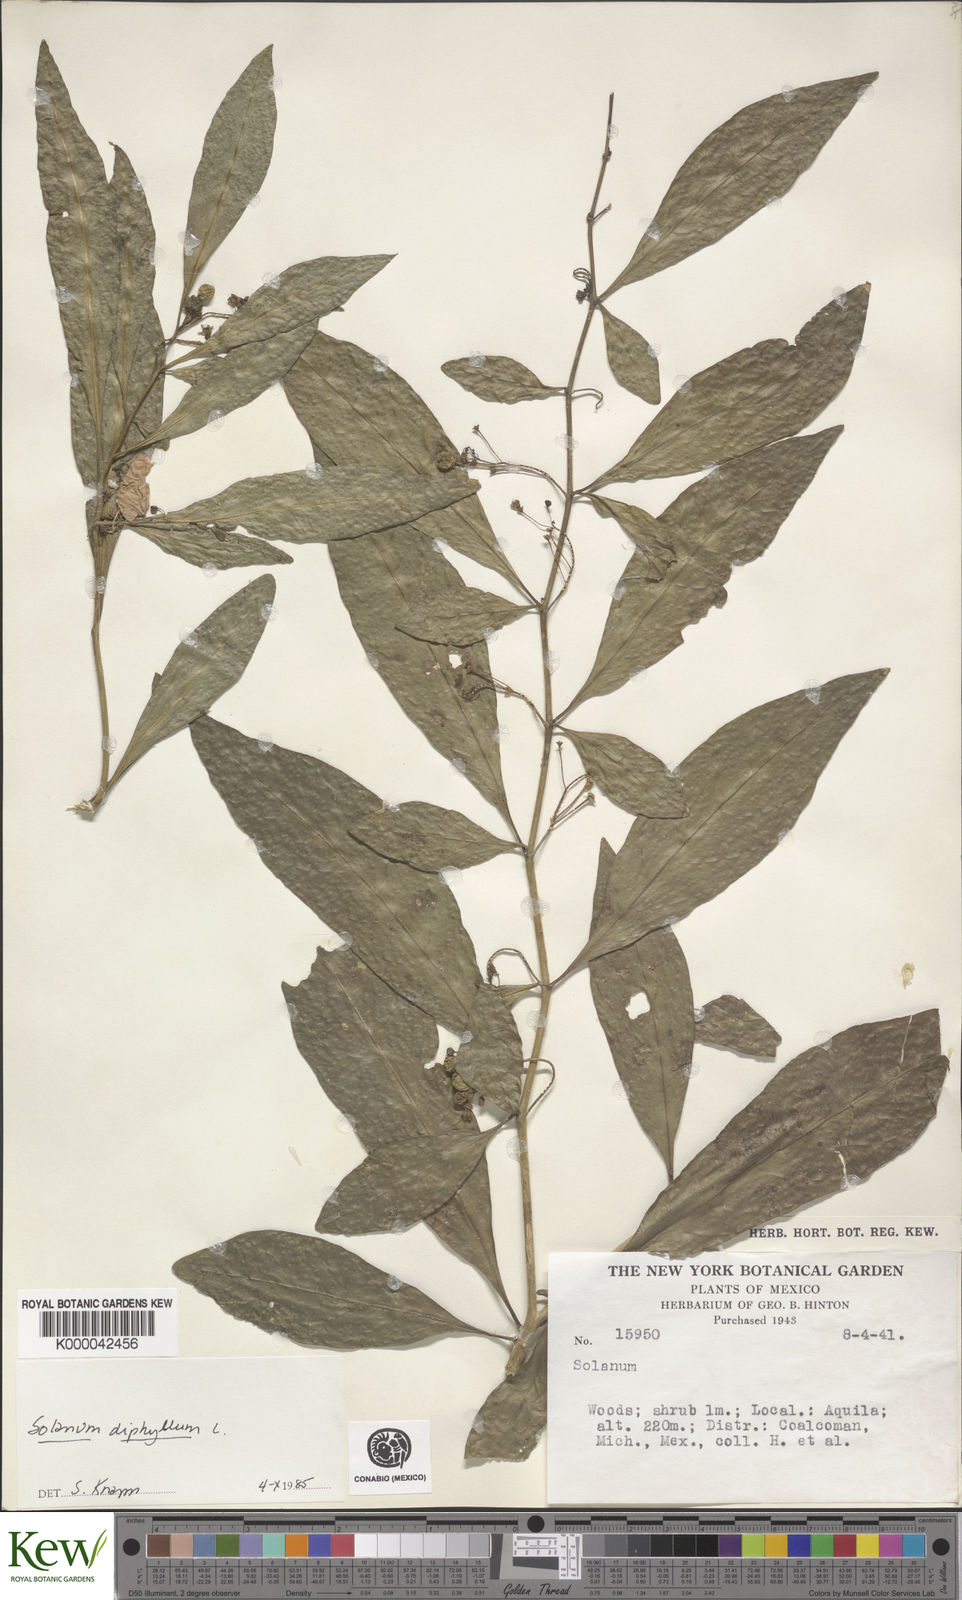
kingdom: Plantae
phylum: Tracheophyta
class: Magnoliopsida
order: Solanales
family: Solanaceae
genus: Solanum
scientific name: Solanum
